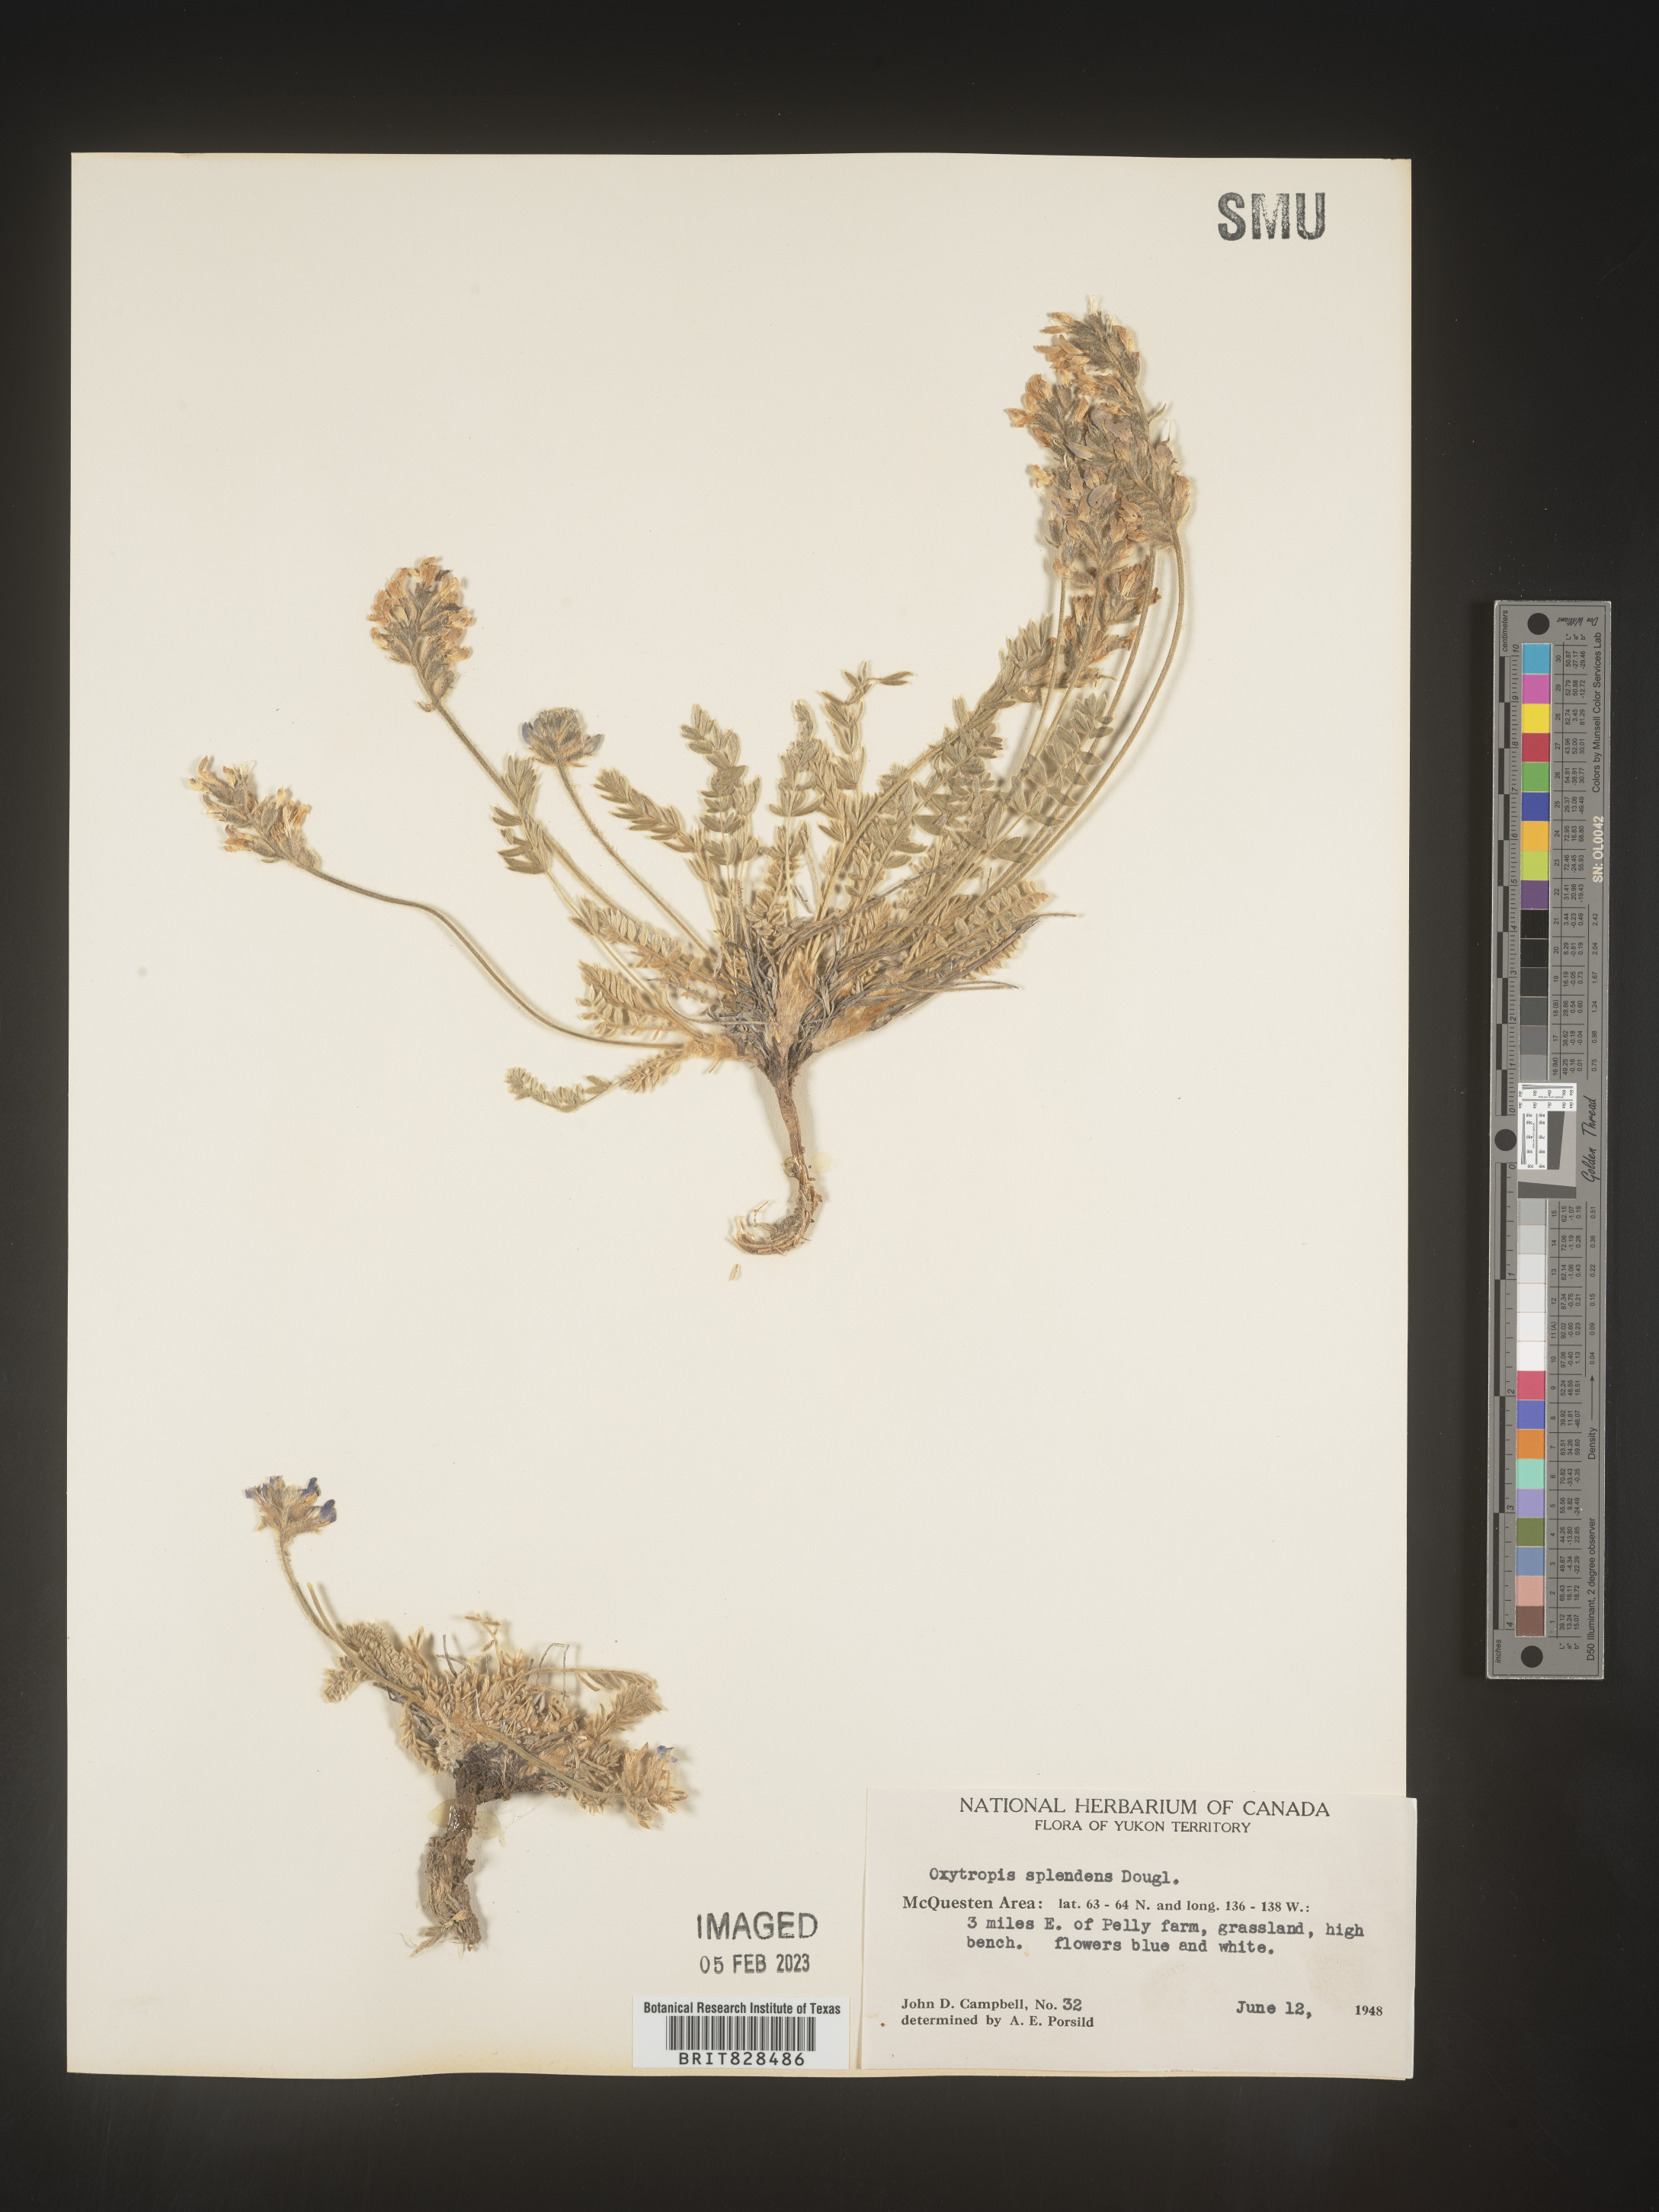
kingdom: Plantae
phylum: Tracheophyta
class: Magnoliopsida
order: Fabales
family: Fabaceae
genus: Oxytropis
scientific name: Oxytropis splendens
